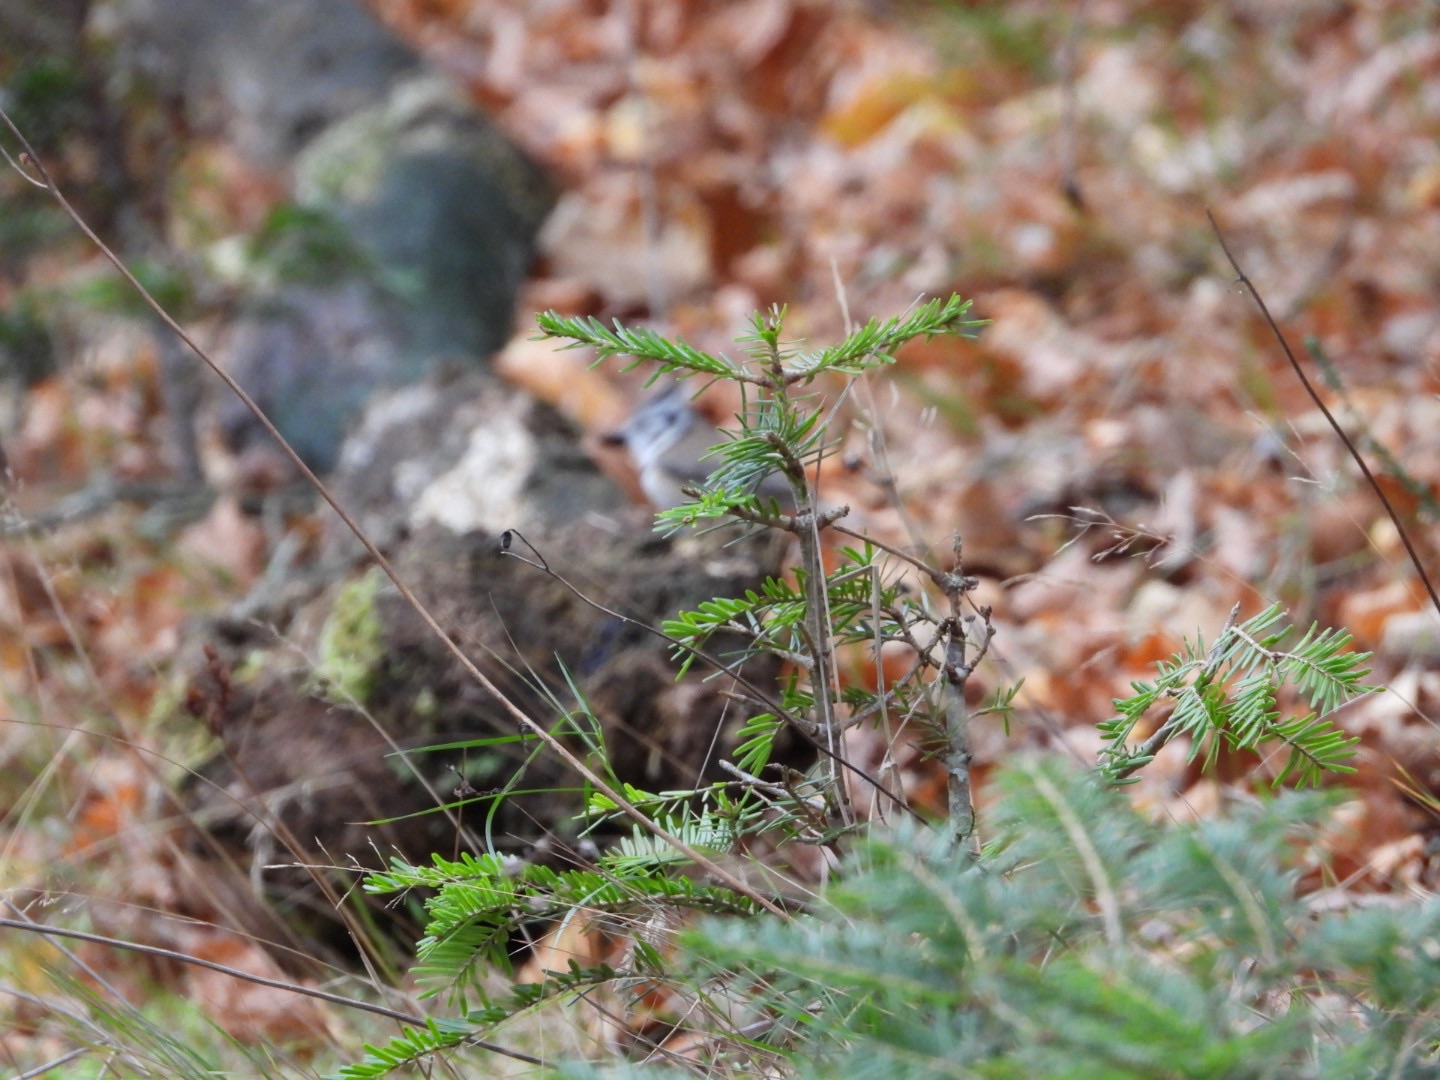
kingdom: Animalia
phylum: Chordata
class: Aves
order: Passeriformes
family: Paridae
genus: Lophophanes
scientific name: Lophophanes cristatus
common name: Topmejse
